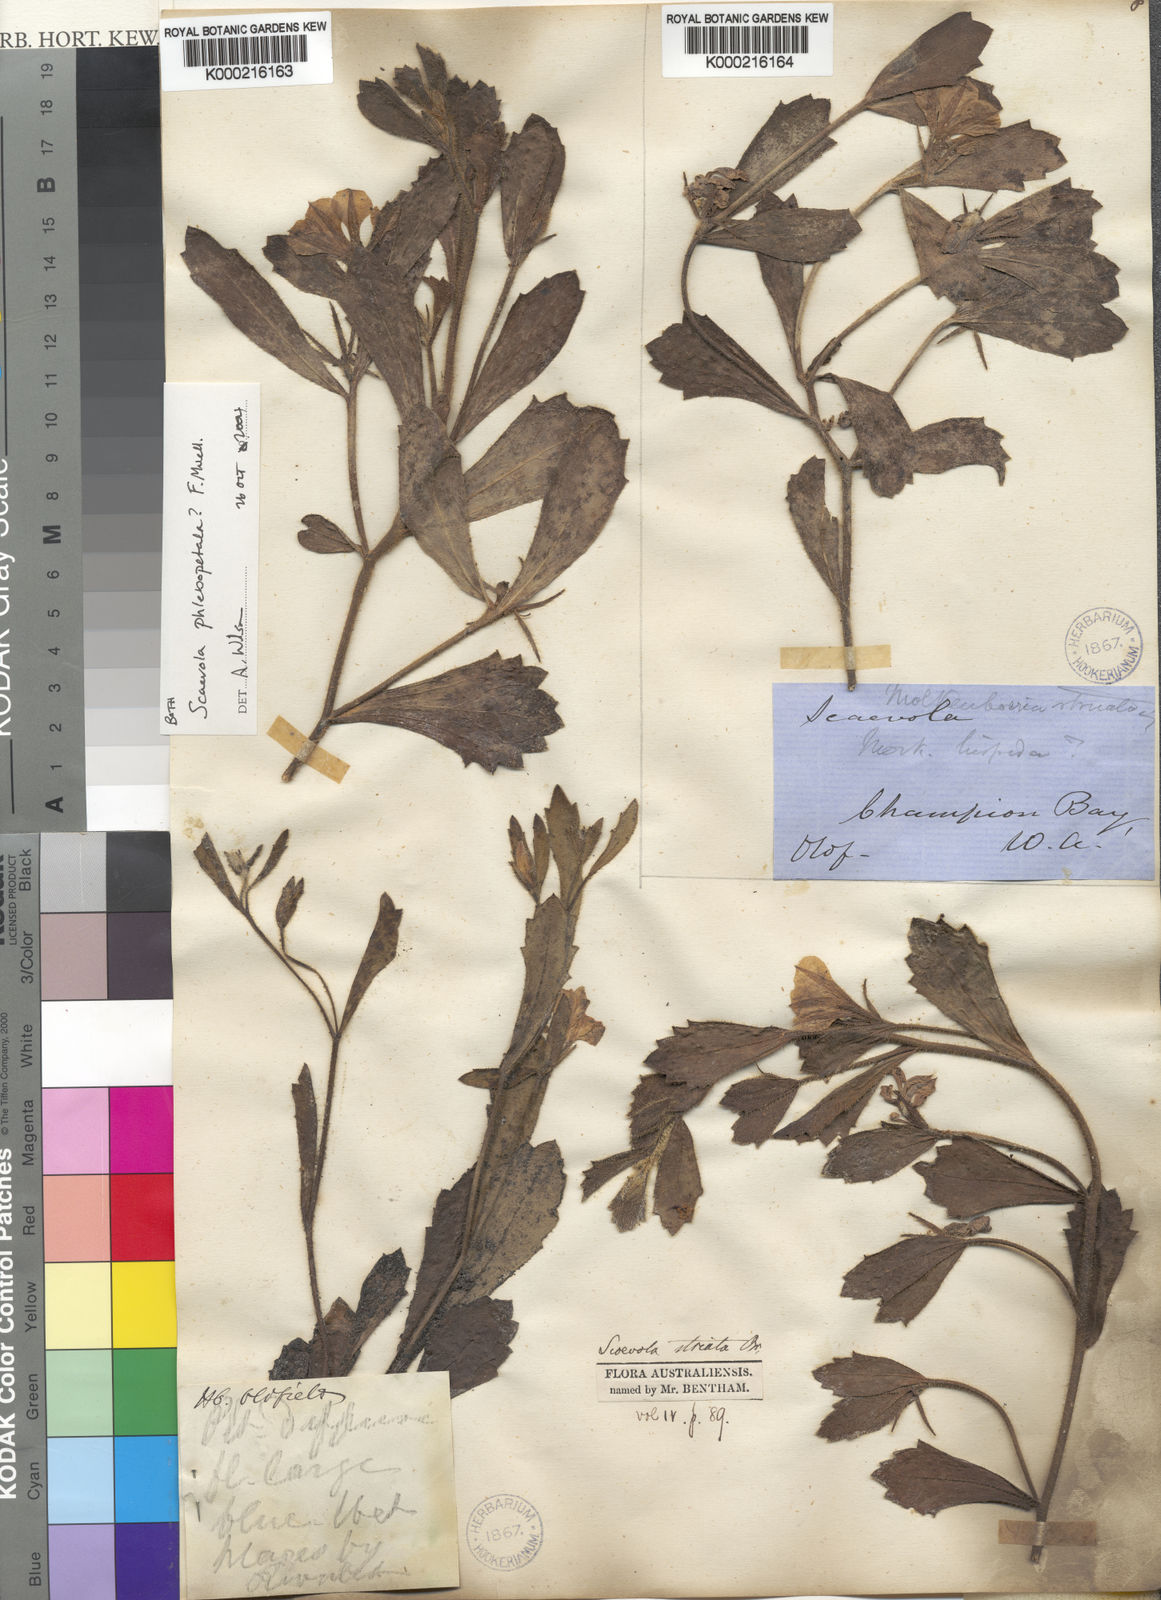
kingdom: Plantae
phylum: Tracheophyta
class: Magnoliopsida
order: Asterales
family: Goodeniaceae
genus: Scaevola
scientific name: Scaevola striata
